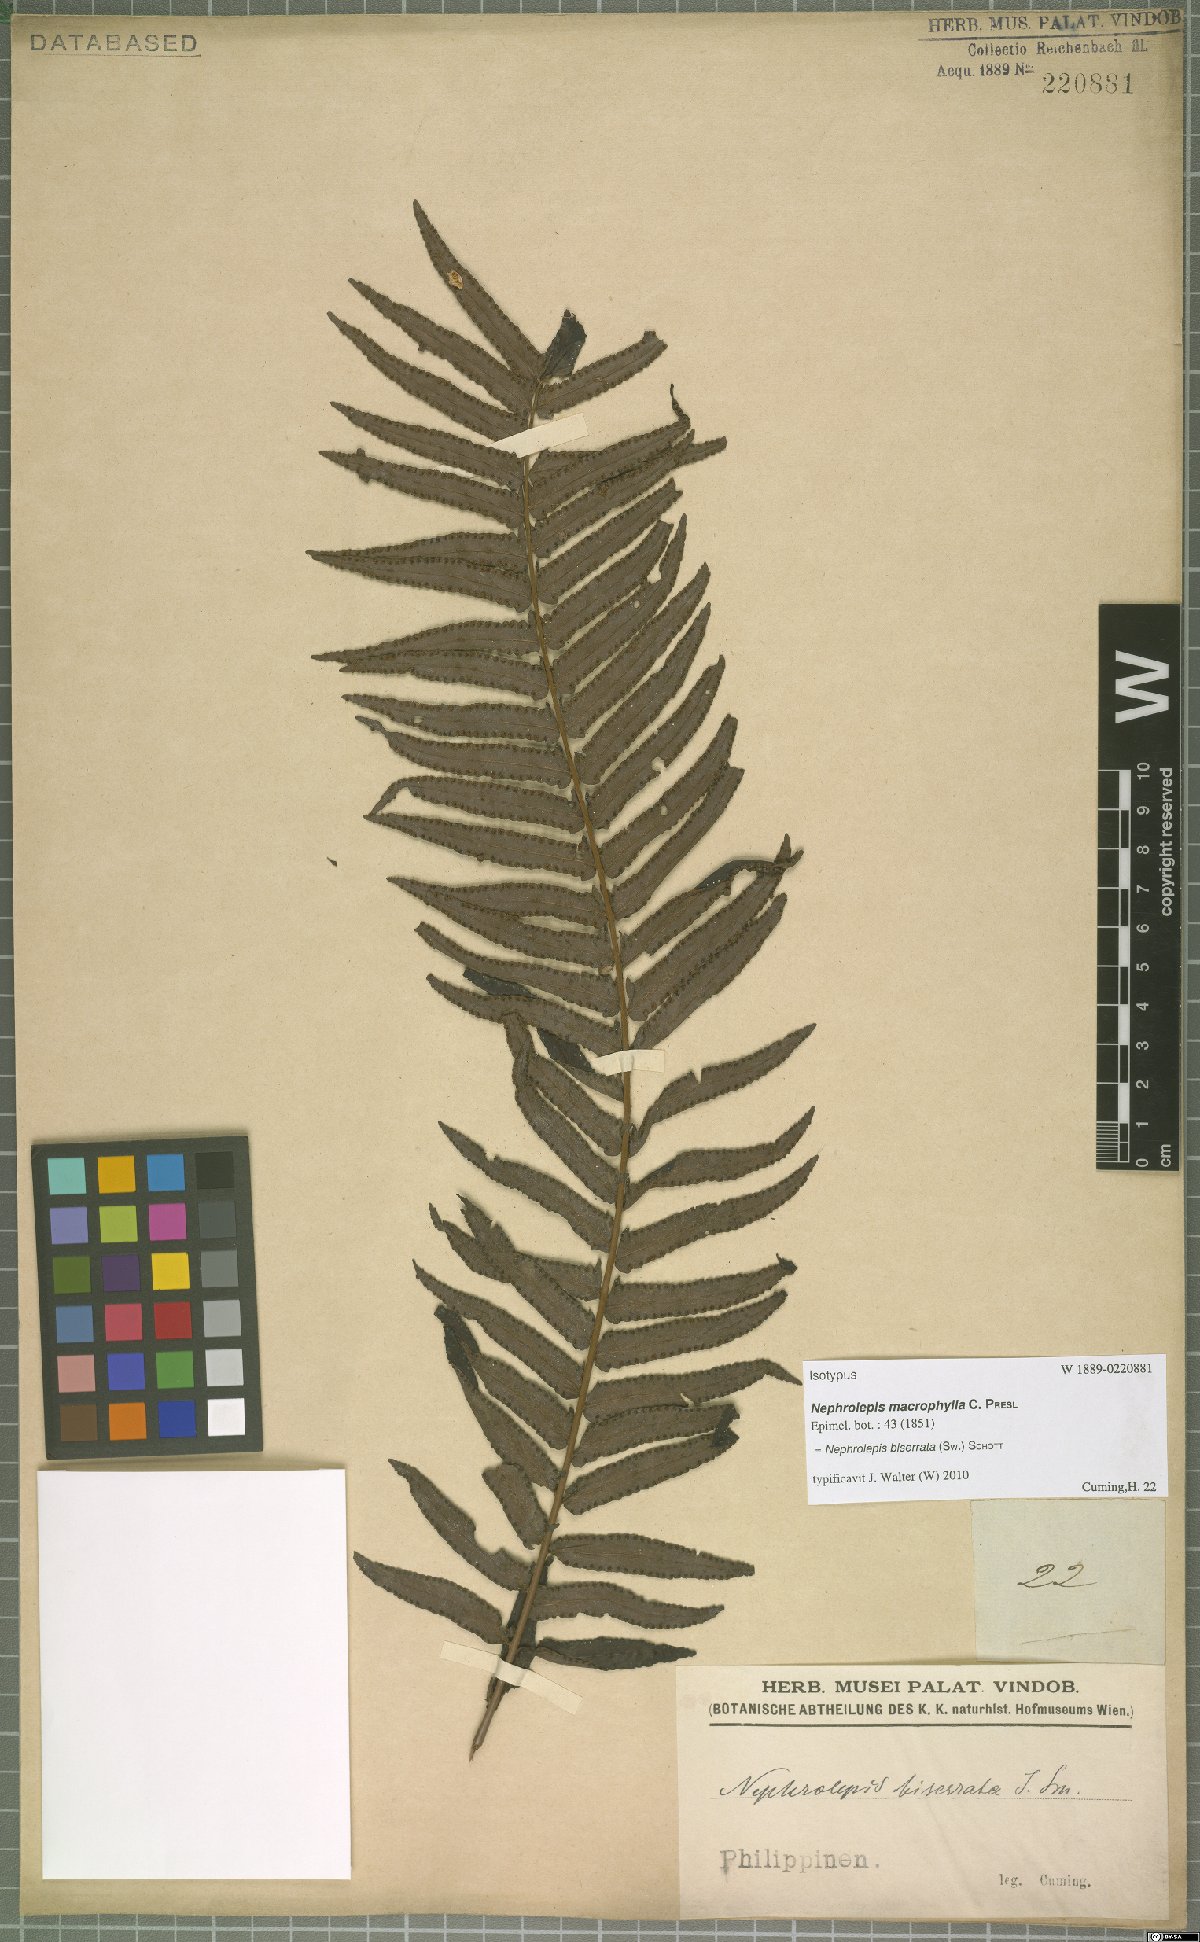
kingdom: Plantae
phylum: Tracheophyta
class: Polypodiopsida
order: Polypodiales
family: Nephrolepidaceae
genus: Nephrolepis
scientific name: Nephrolepis biserrata
